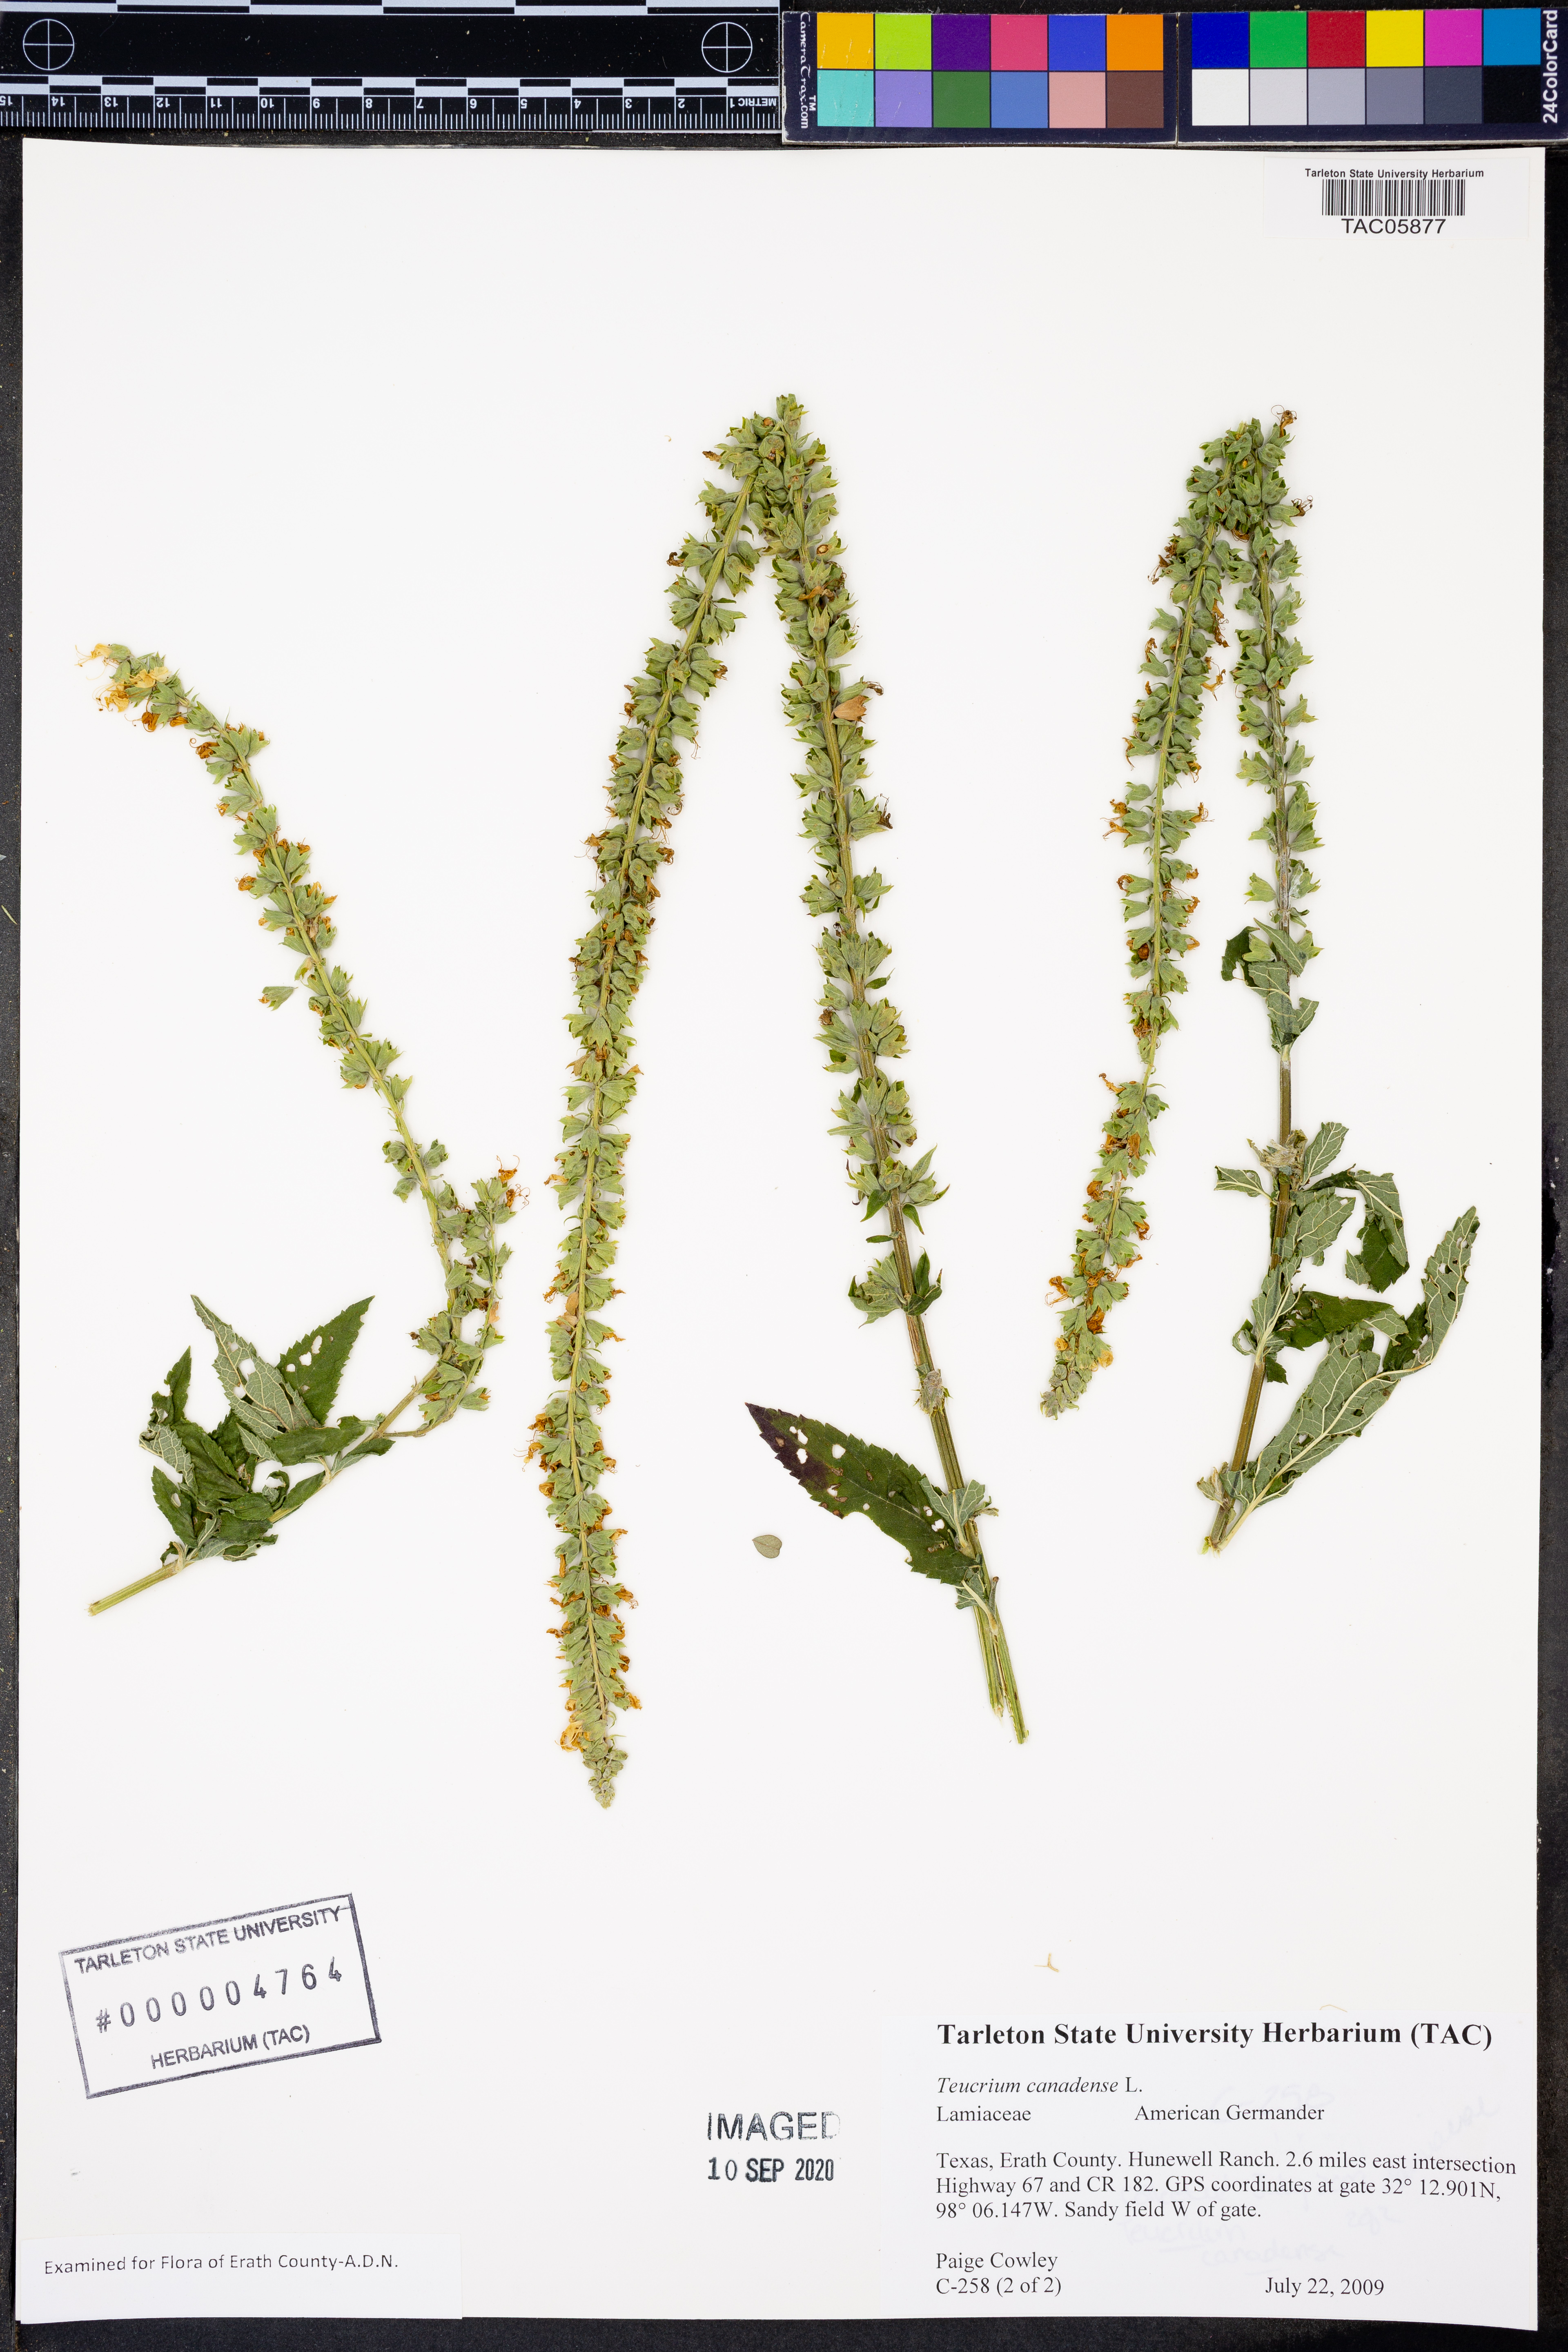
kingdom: Plantae
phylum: Tracheophyta
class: Magnoliopsida
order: Lamiales
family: Lamiaceae
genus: Teucrium
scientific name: Teucrium canadense
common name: American germander
